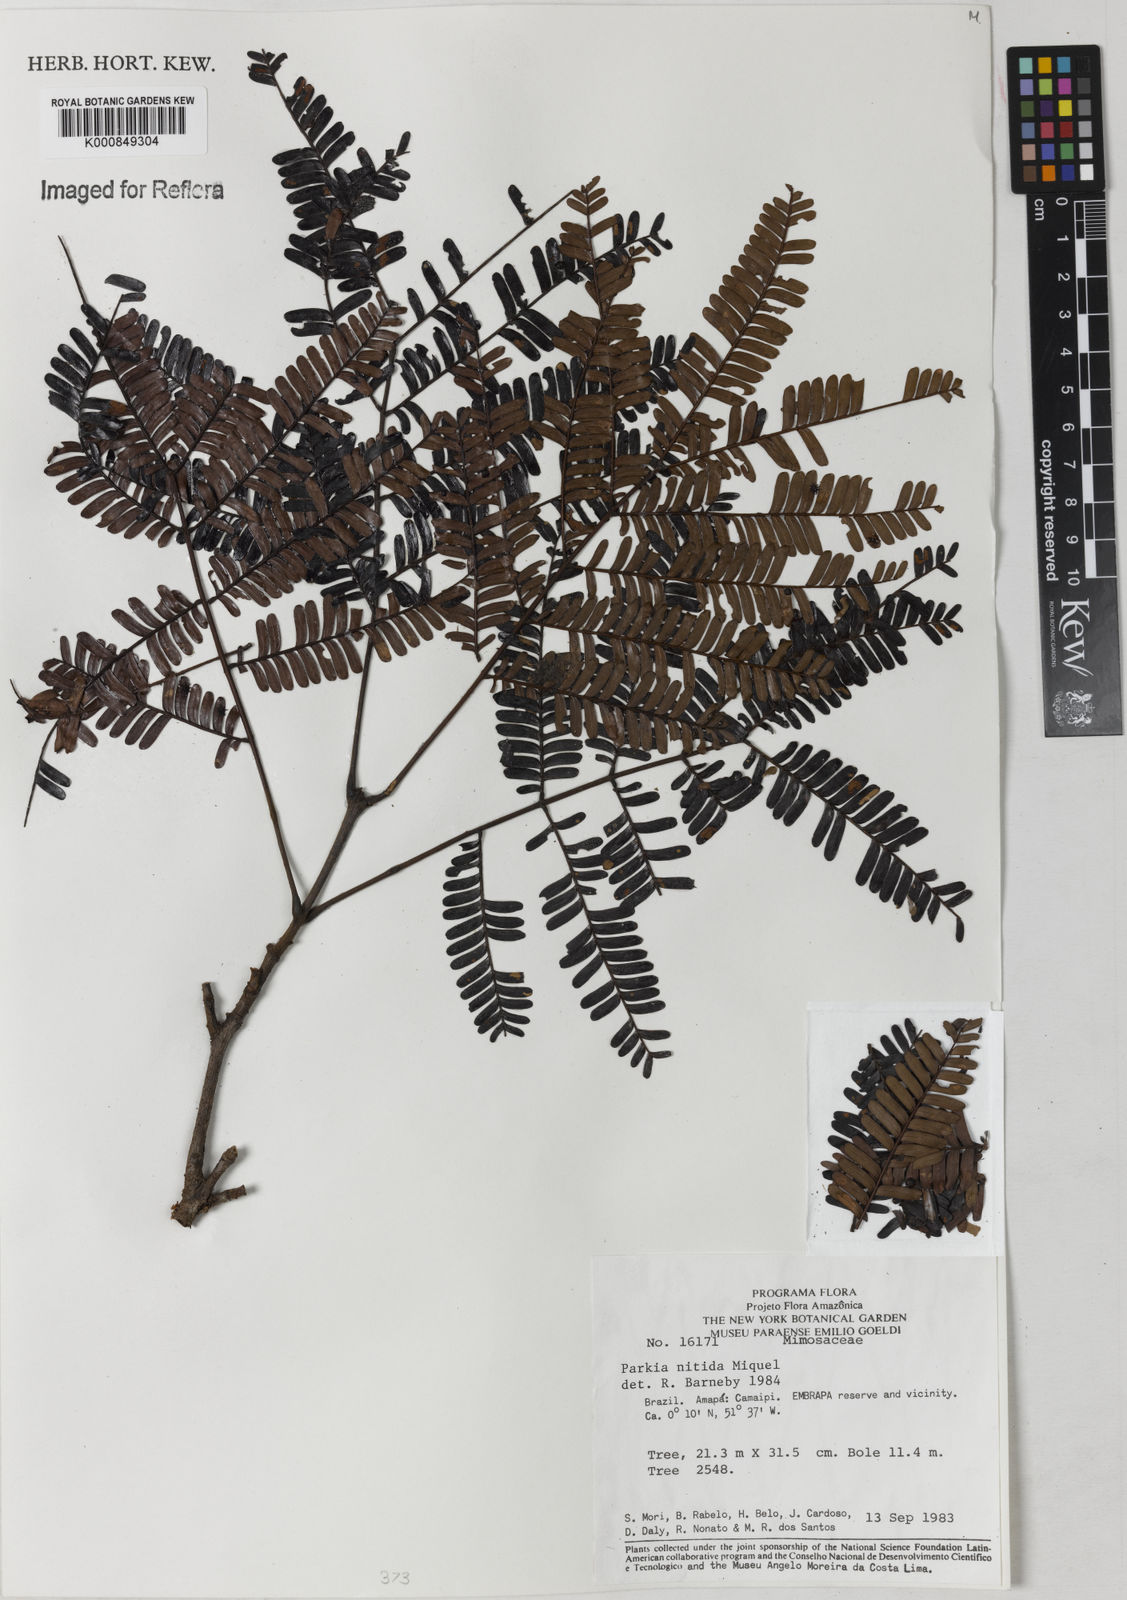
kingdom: Plantae
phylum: Tracheophyta
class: Magnoliopsida
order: Fabales
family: Fabaceae
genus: Parkia
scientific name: Parkia nitida
